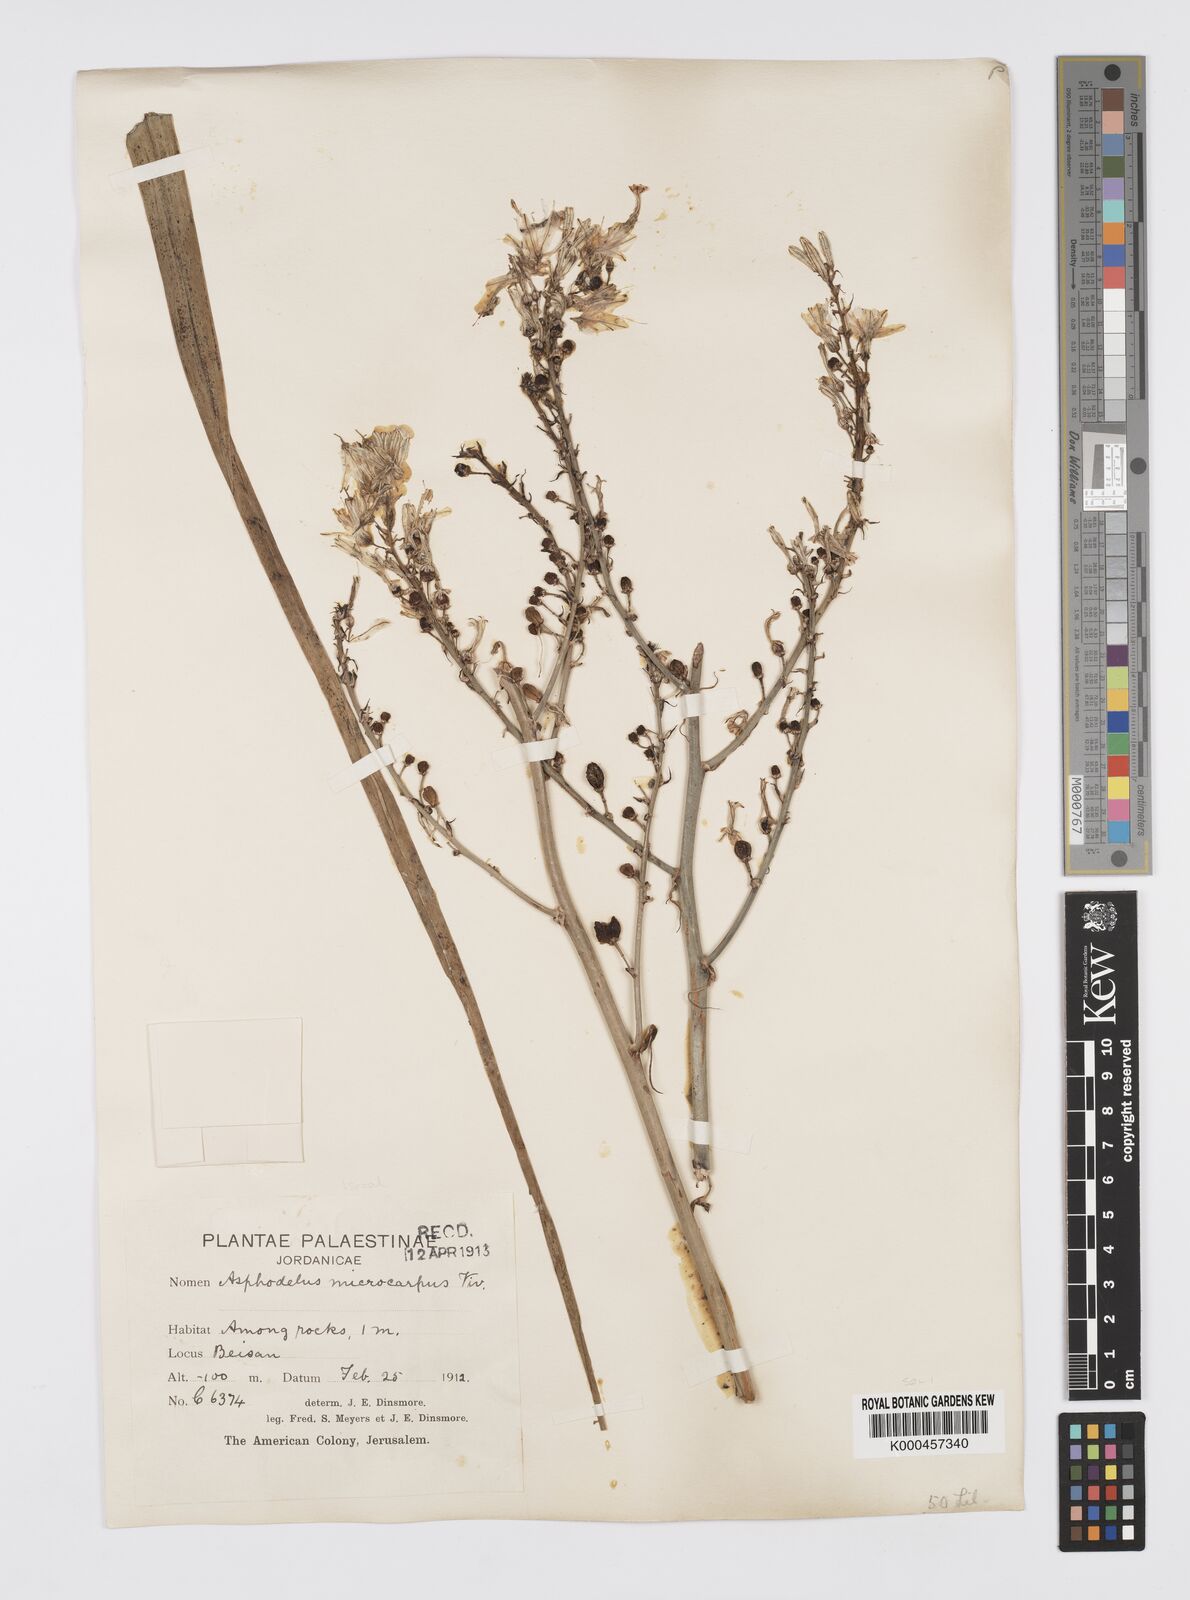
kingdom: Plantae
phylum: Tracheophyta
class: Liliopsida
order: Asparagales
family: Asphodelaceae
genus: Asphodelus
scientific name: Asphodelus aestivus
